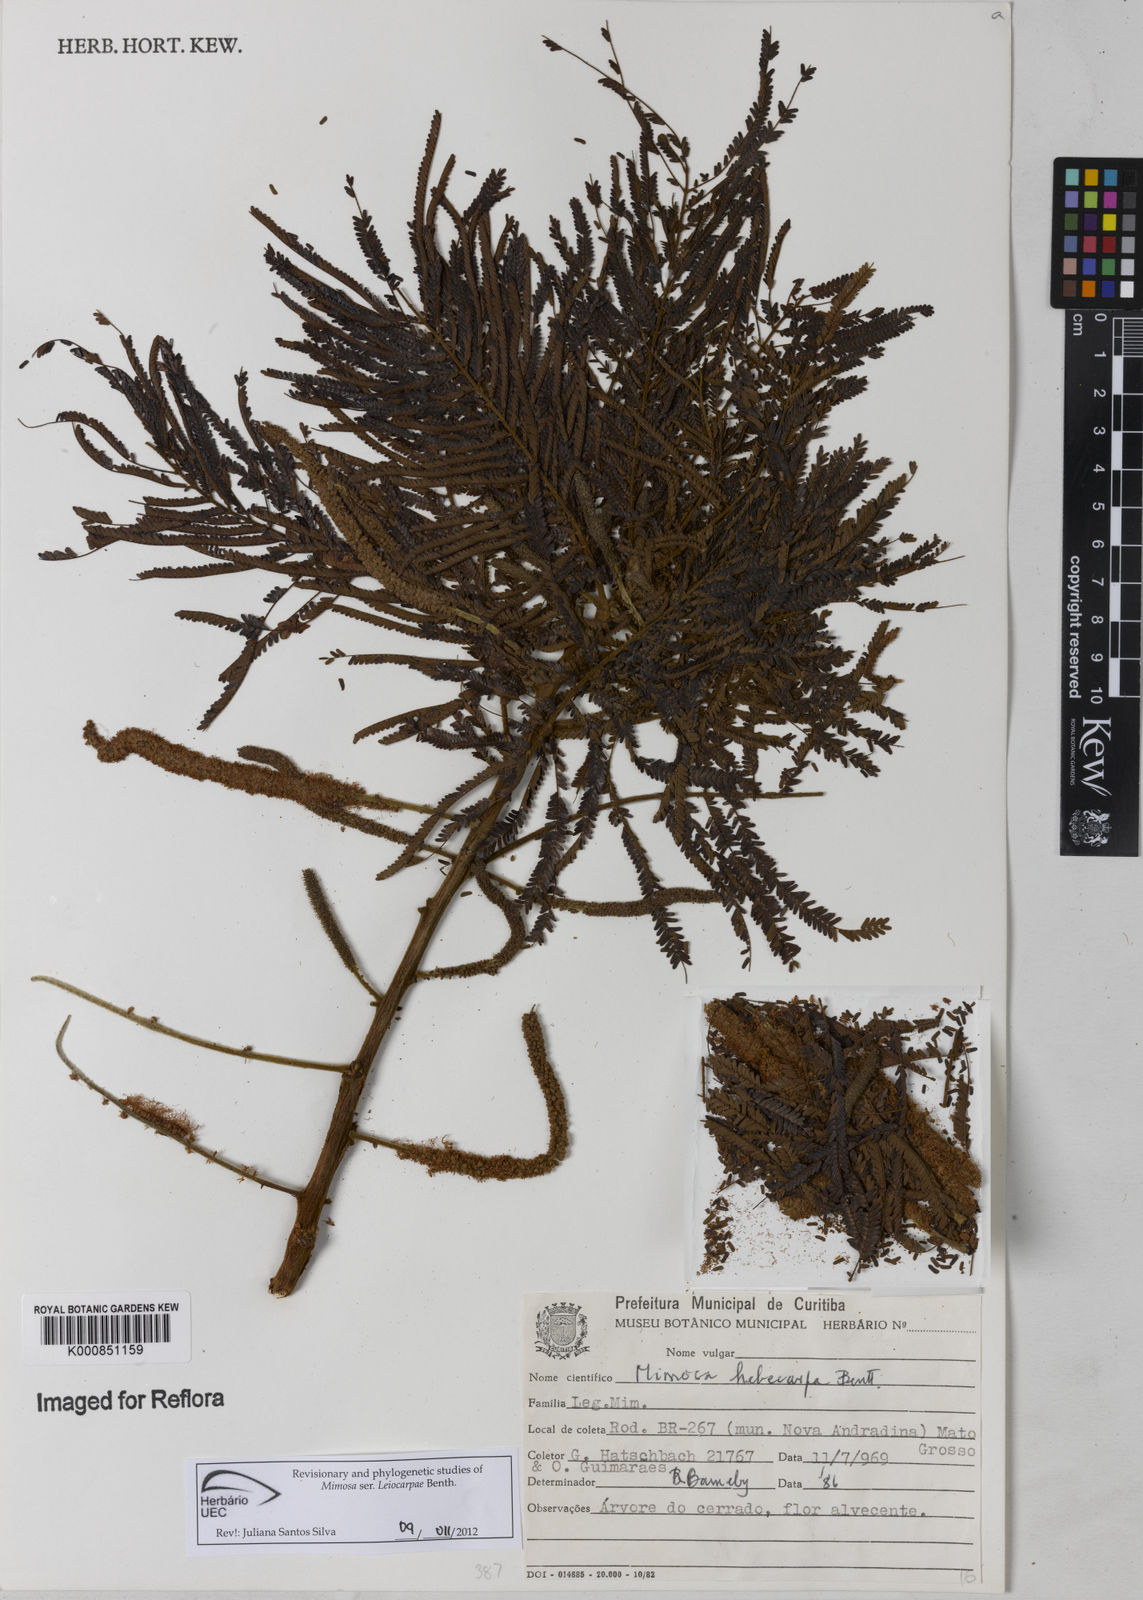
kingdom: Plantae
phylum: Tracheophyta
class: Magnoliopsida
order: Fabales
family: Fabaceae
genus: Mimosa
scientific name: Mimosa hebecarpa
